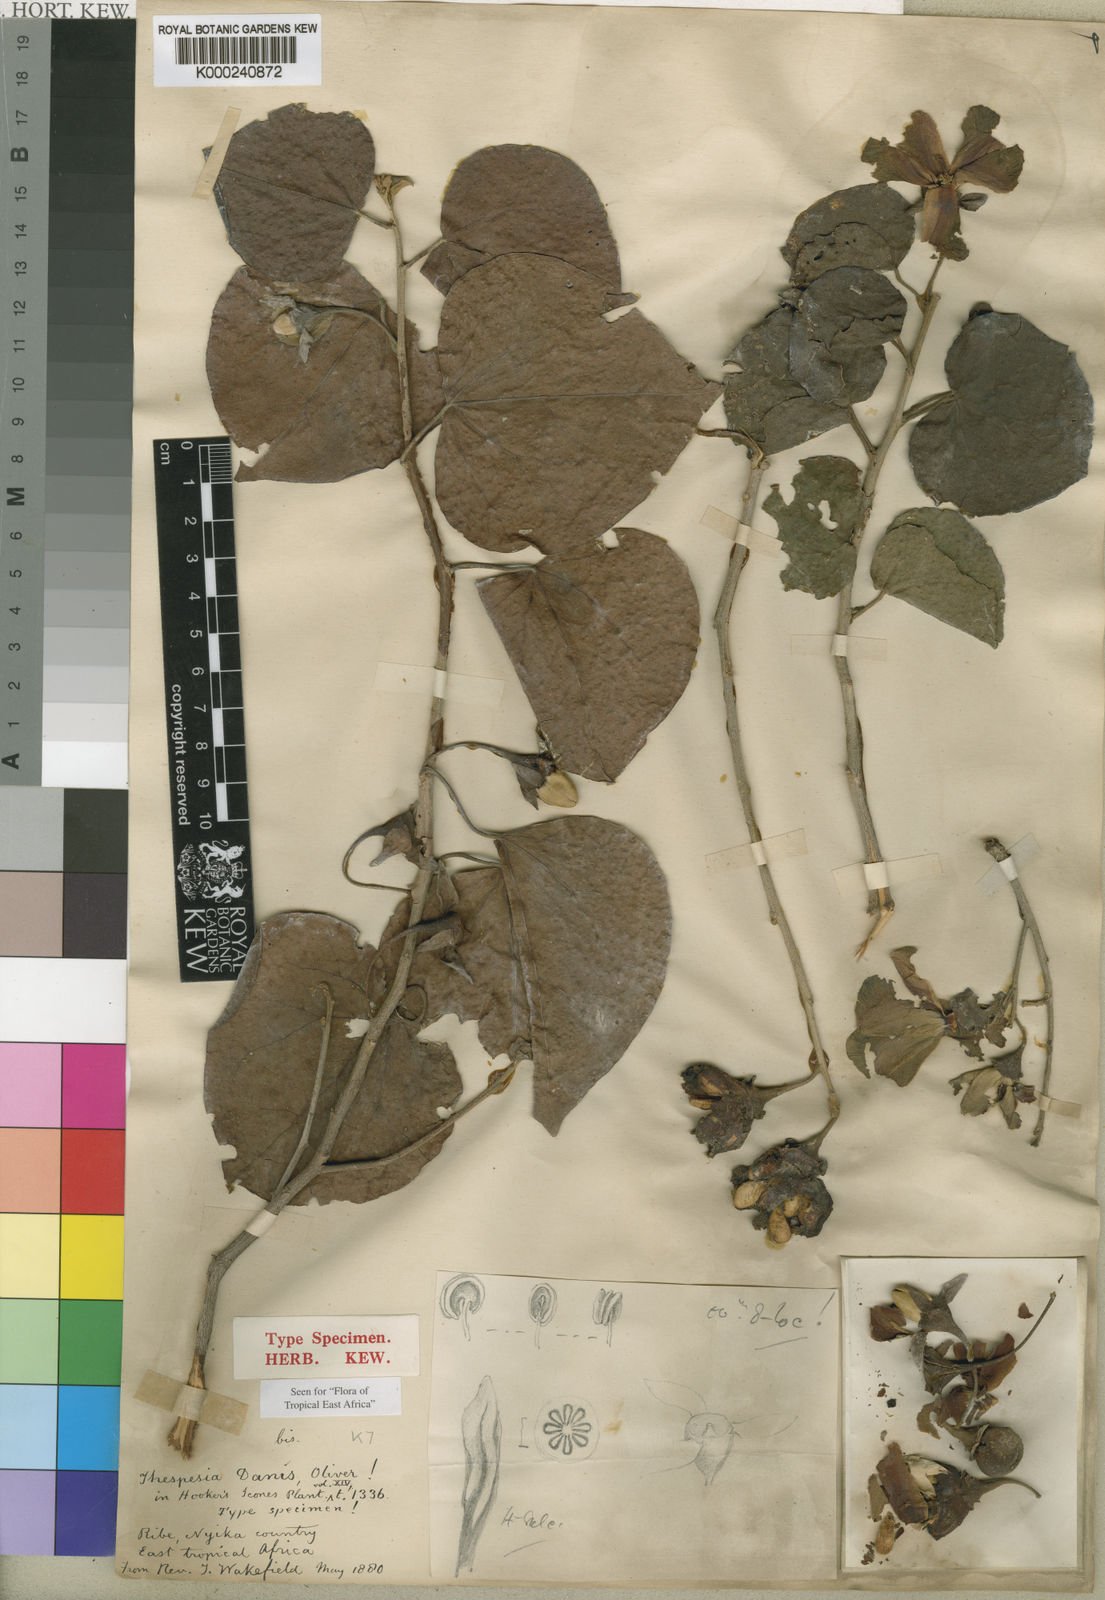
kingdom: Plantae
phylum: Tracheophyta
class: Magnoliopsida
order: Malvales
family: Malvaceae
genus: Thespesia
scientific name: Thespesia danis
